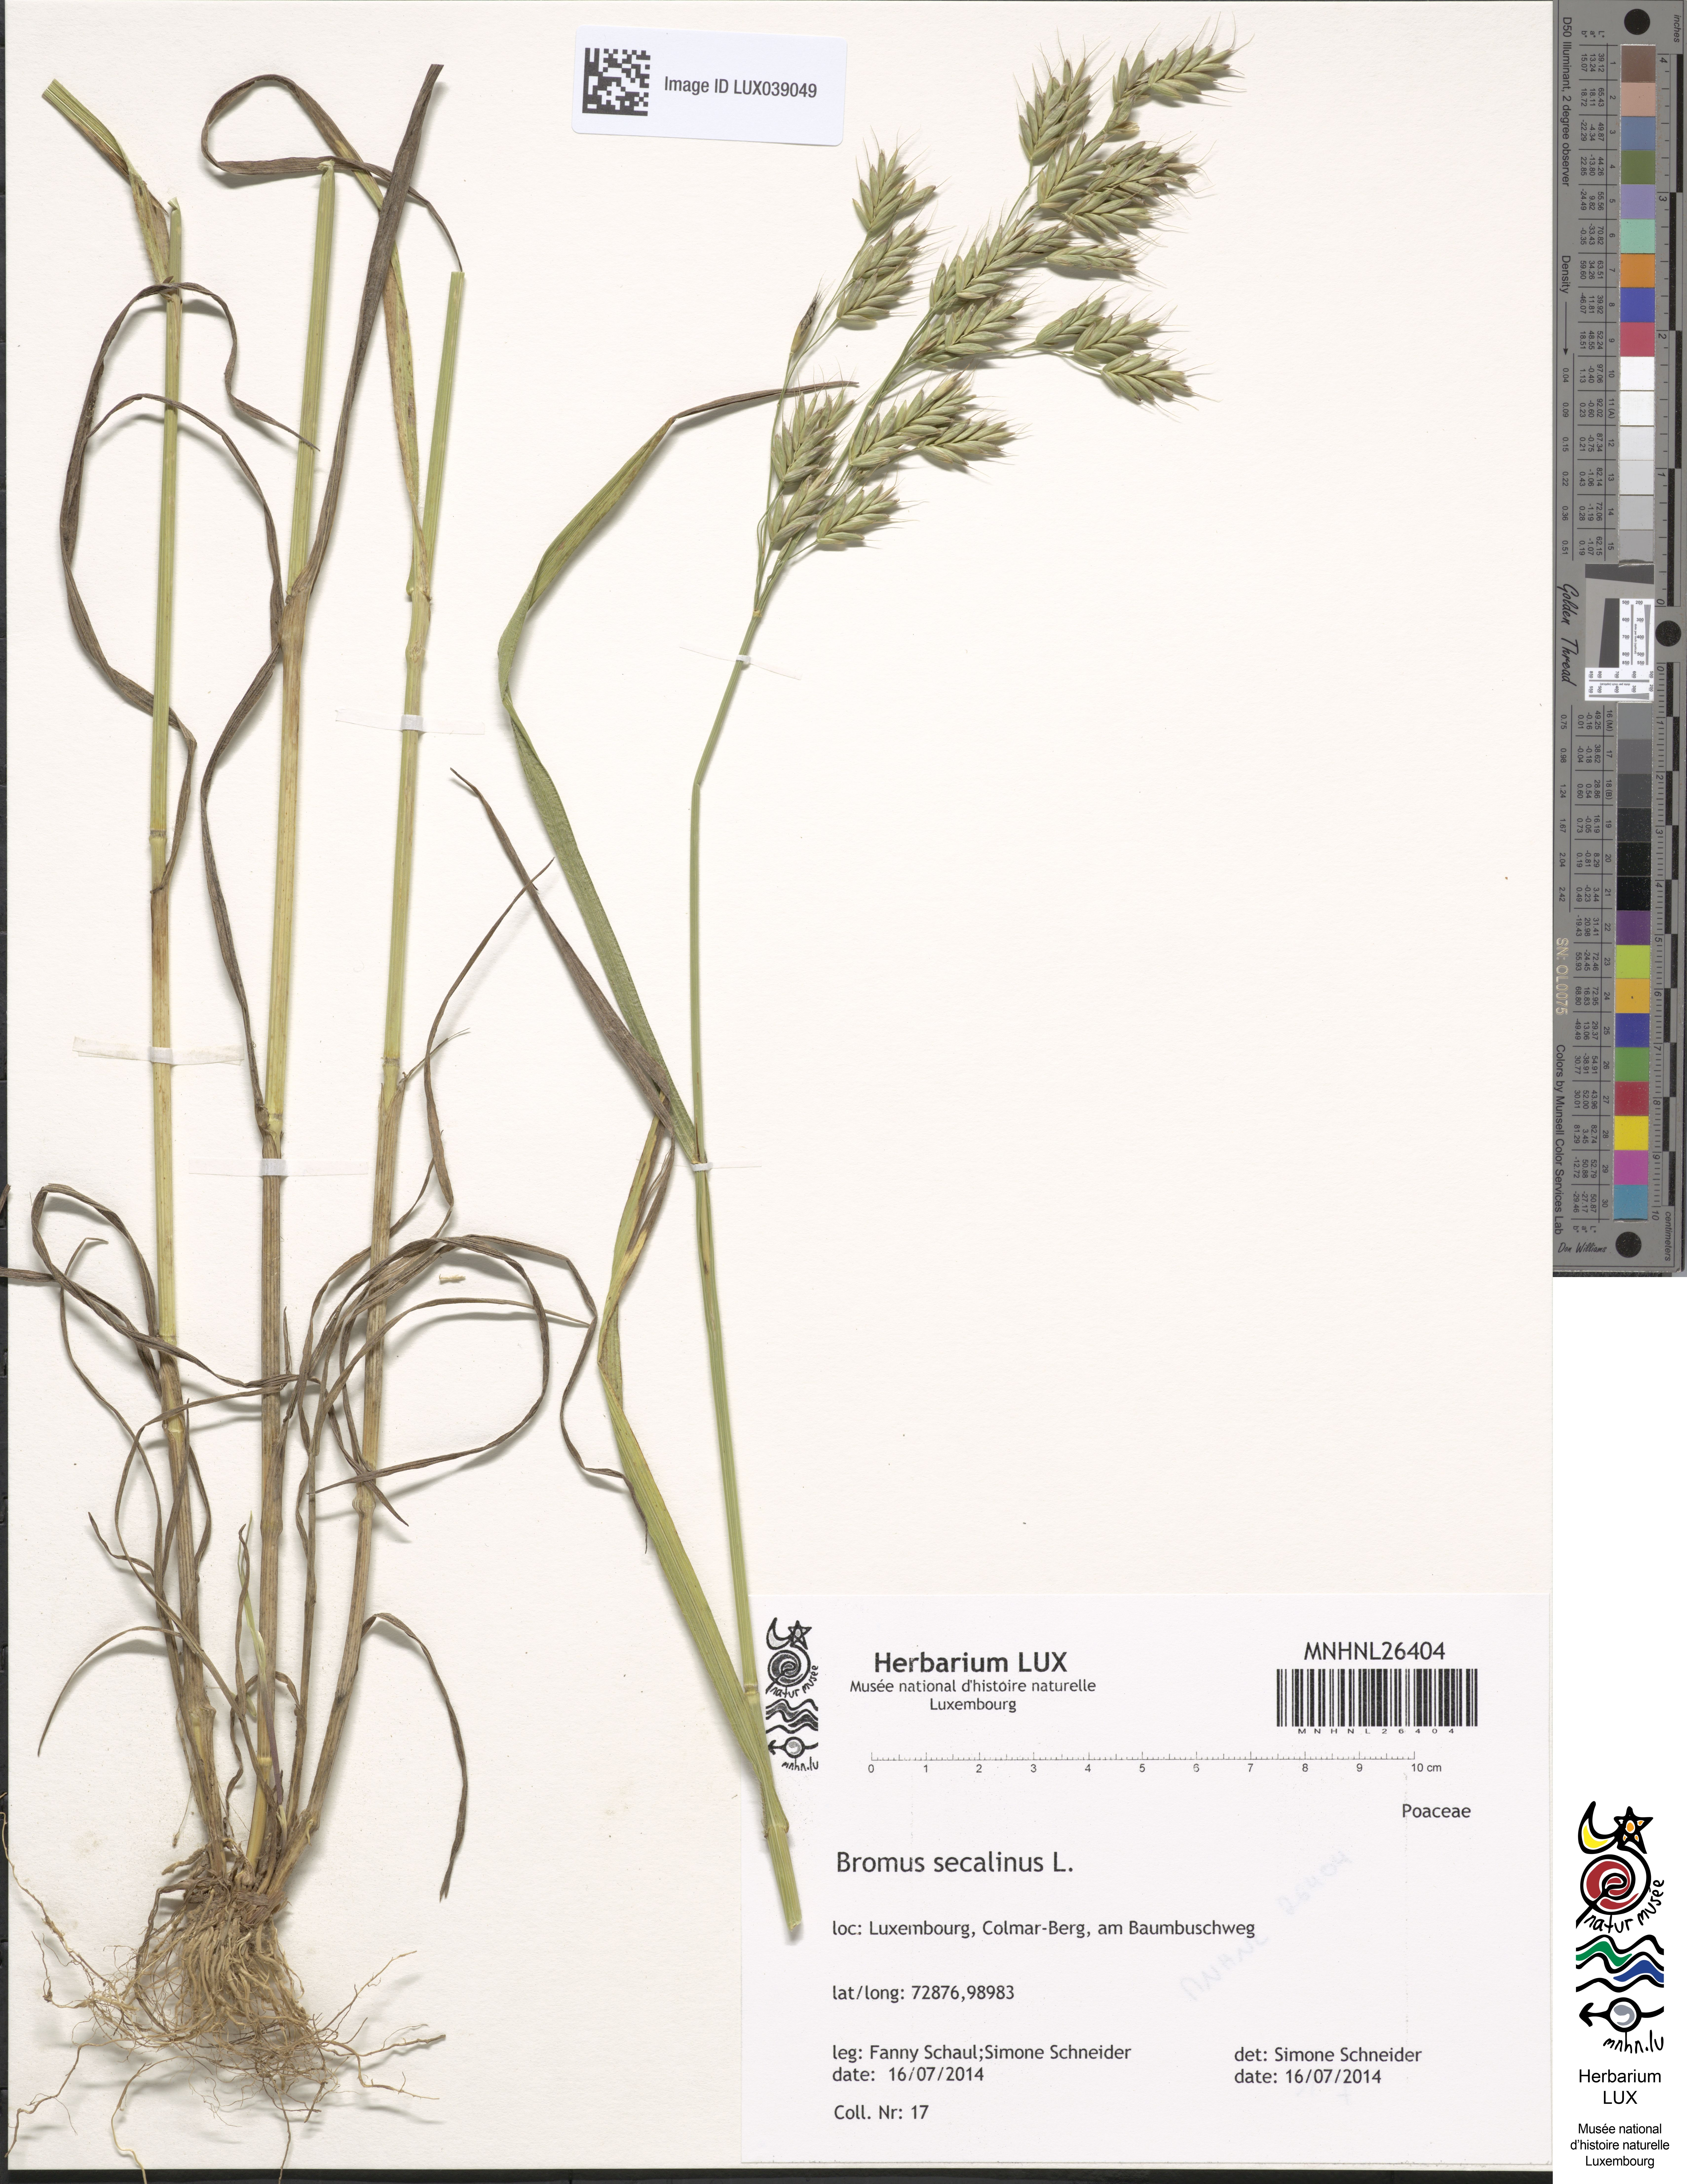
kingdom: Plantae
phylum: Tracheophyta
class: Liliopsida
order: Poales
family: Poaceae
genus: Bromus
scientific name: Bromus secalinus
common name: Rye brome
